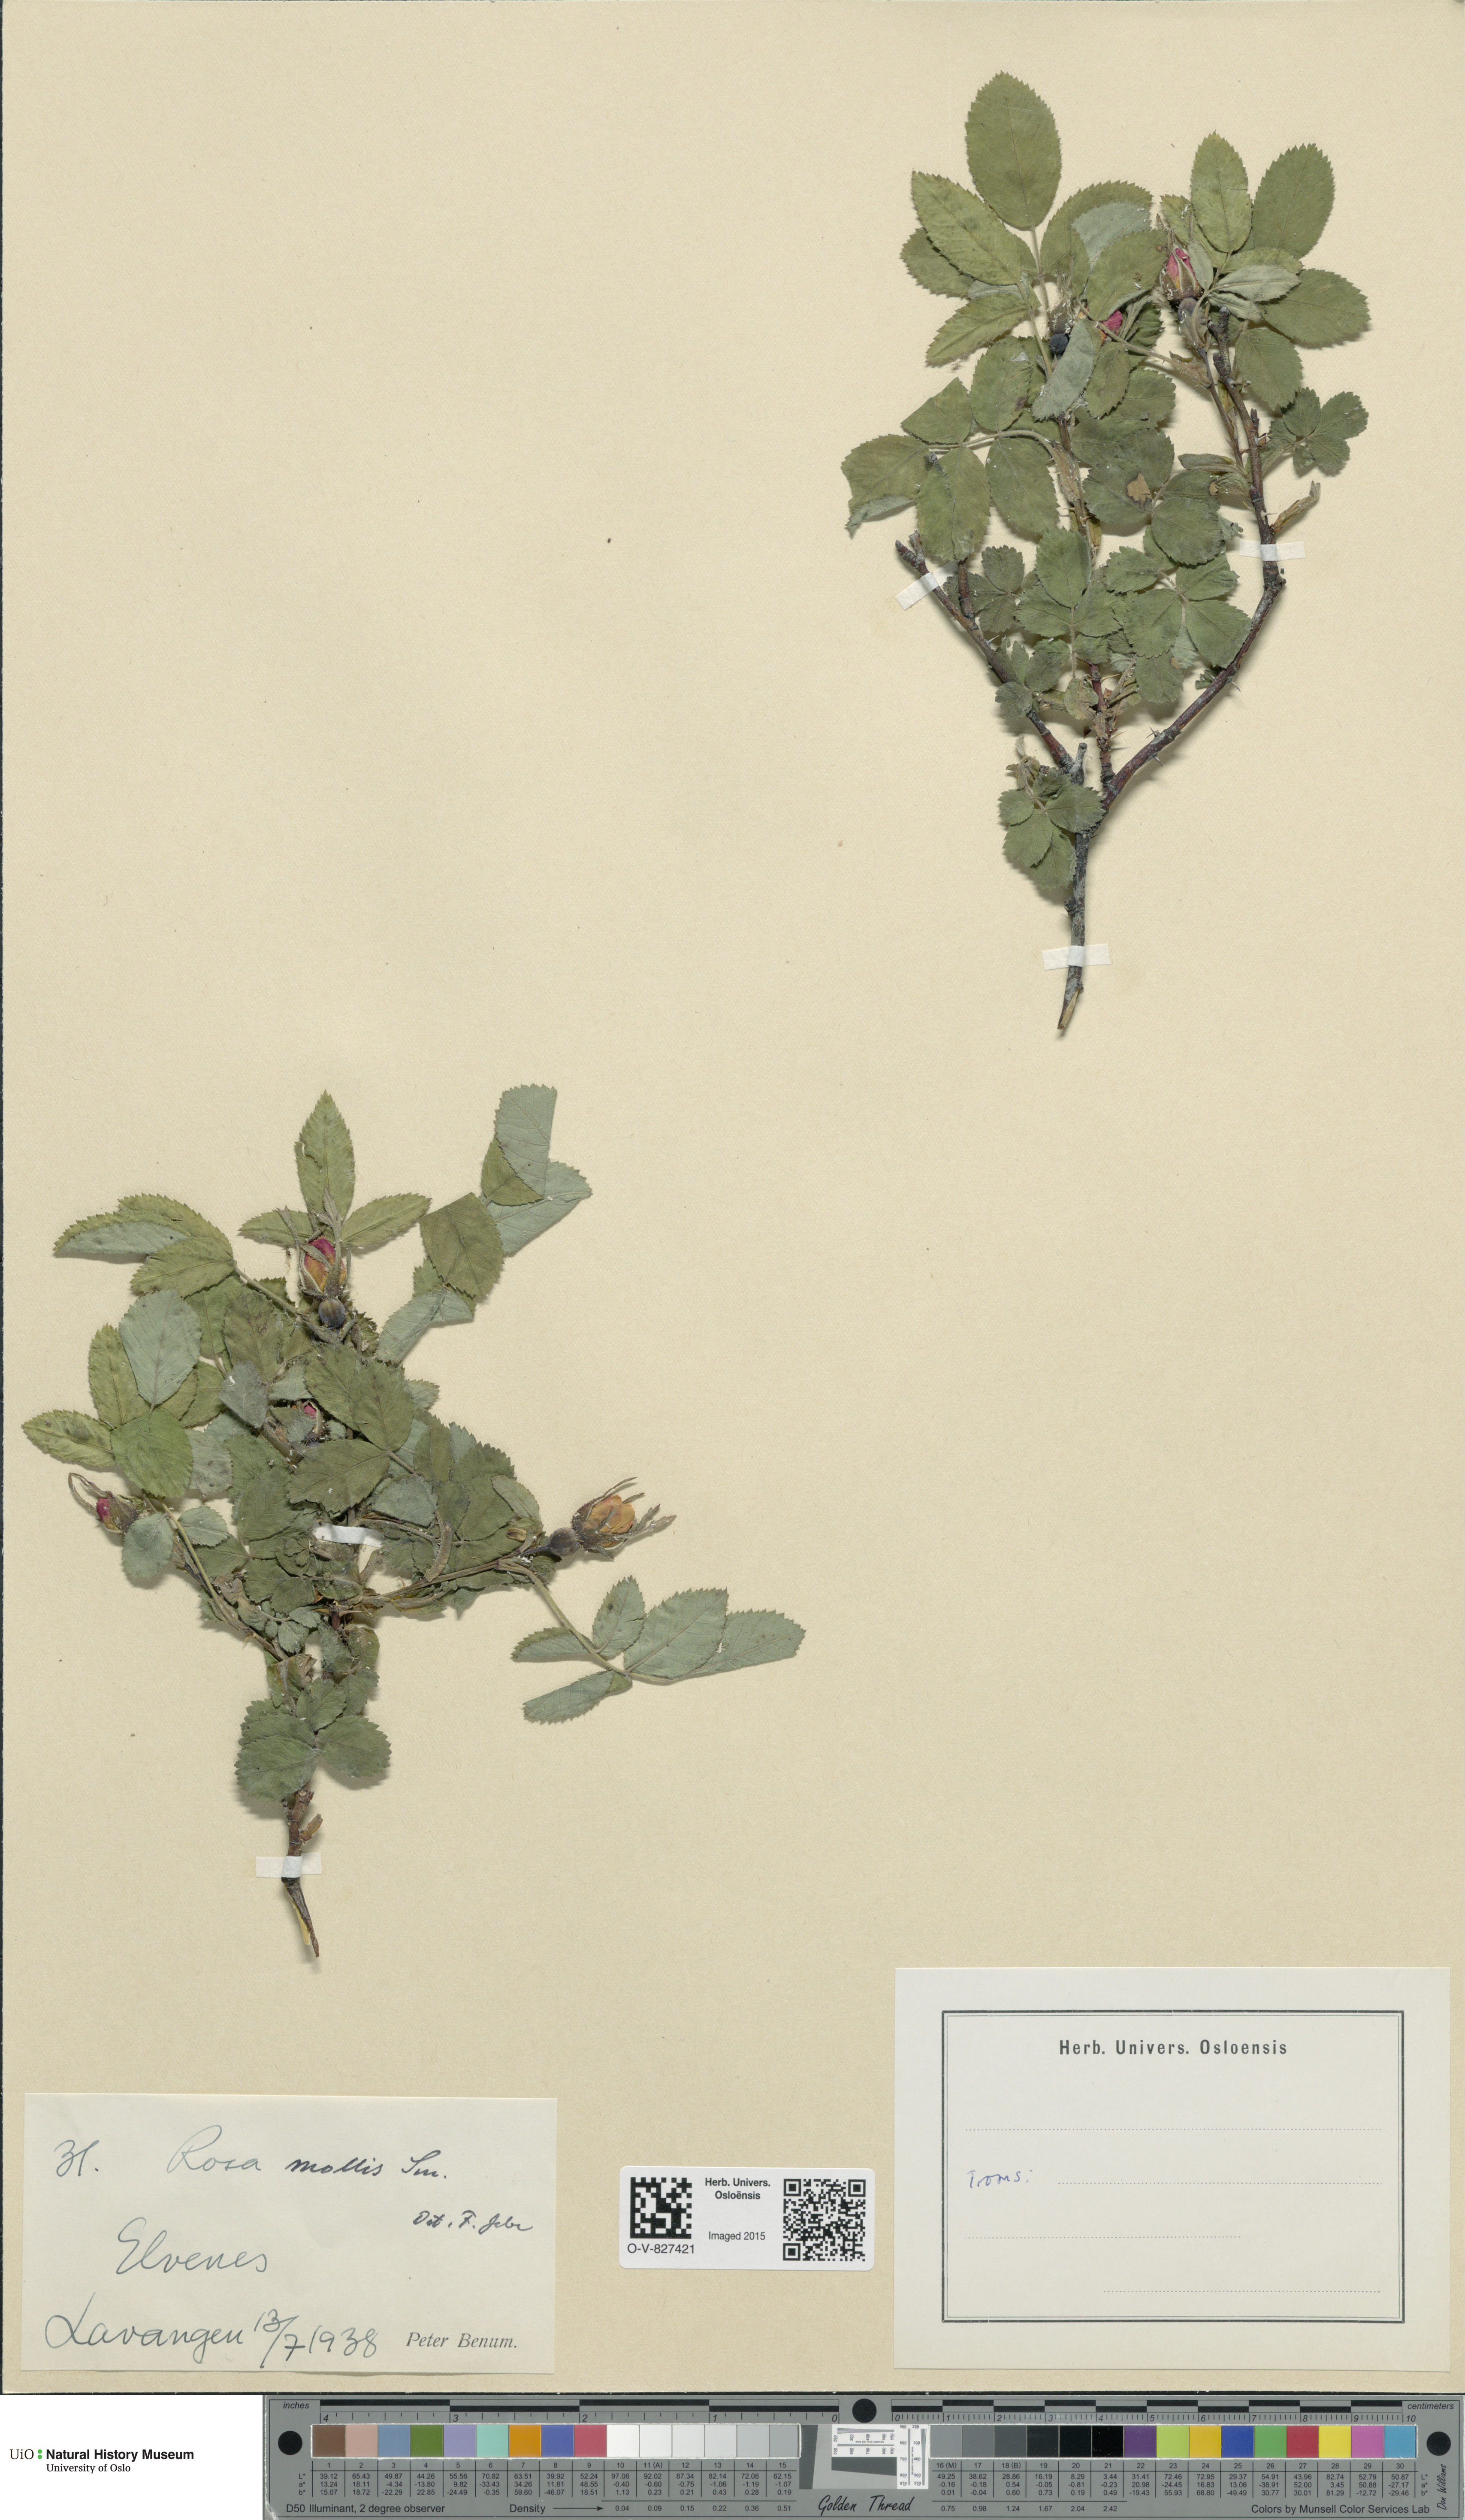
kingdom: Plantae
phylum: Tracheophyta
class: Magnoliopsida
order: Rosales
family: Rosaceae
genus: Rosa
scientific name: Rosa mollis
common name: Rose
